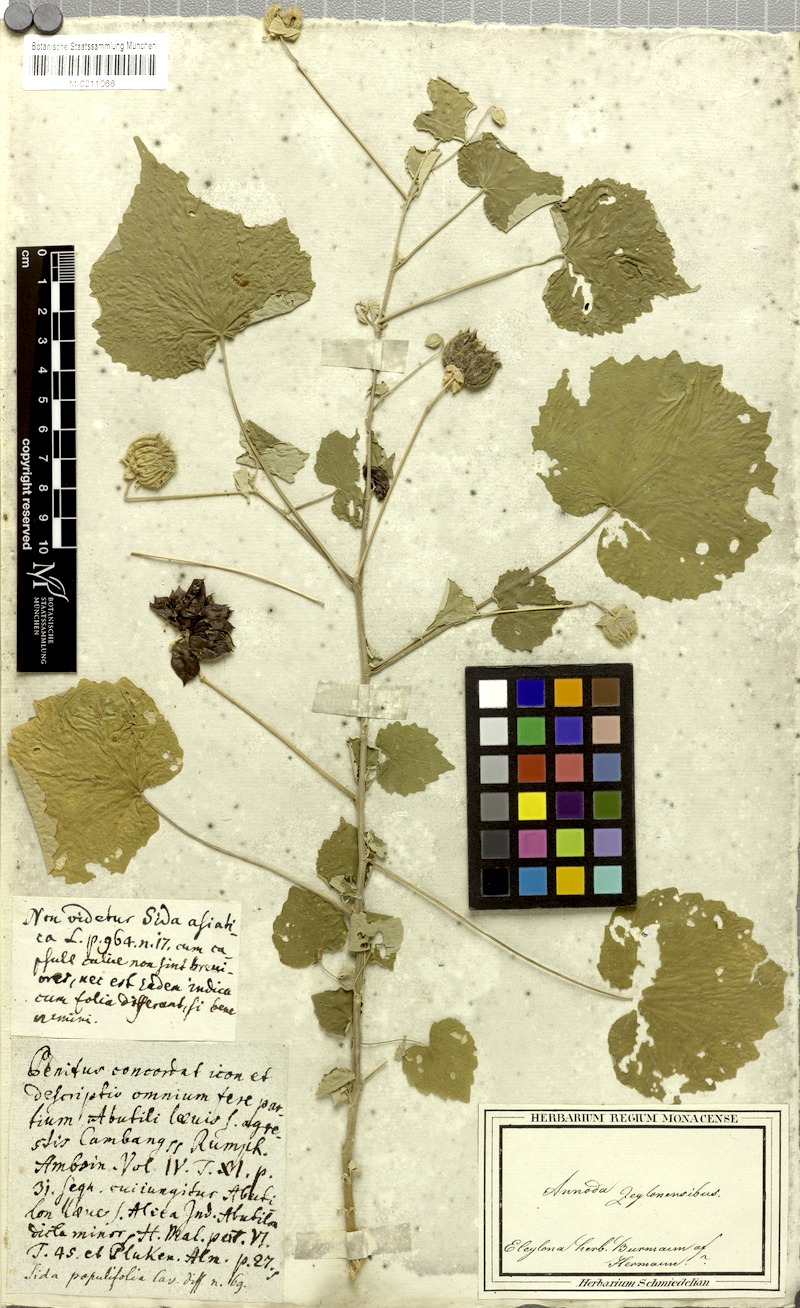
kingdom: Plantae
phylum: Tracheophyta
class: Magnoliopsida
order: Malvales
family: Malvaceae
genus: Abutilon
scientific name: Abutilon indicum
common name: Indian abutilon
